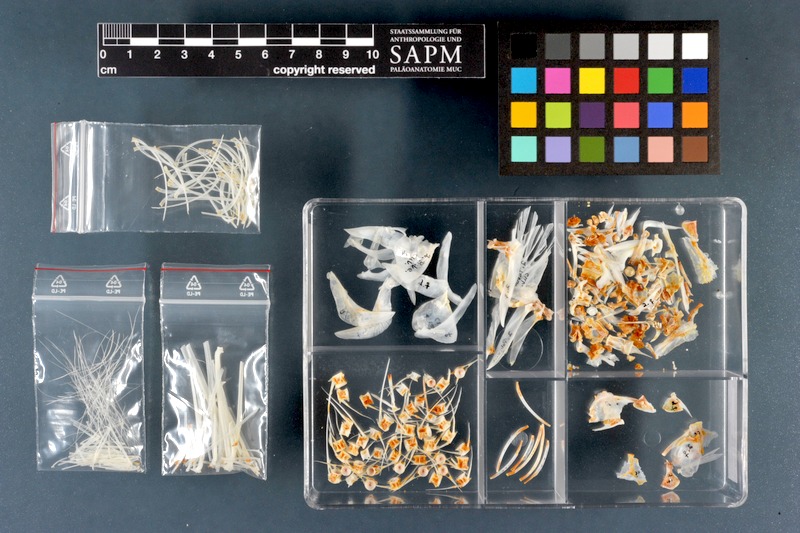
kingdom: Animalia
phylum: Chordata
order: Cypriniformes
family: Cyprinidae
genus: Pelecus
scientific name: Pelecus cultratus
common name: Ziege
